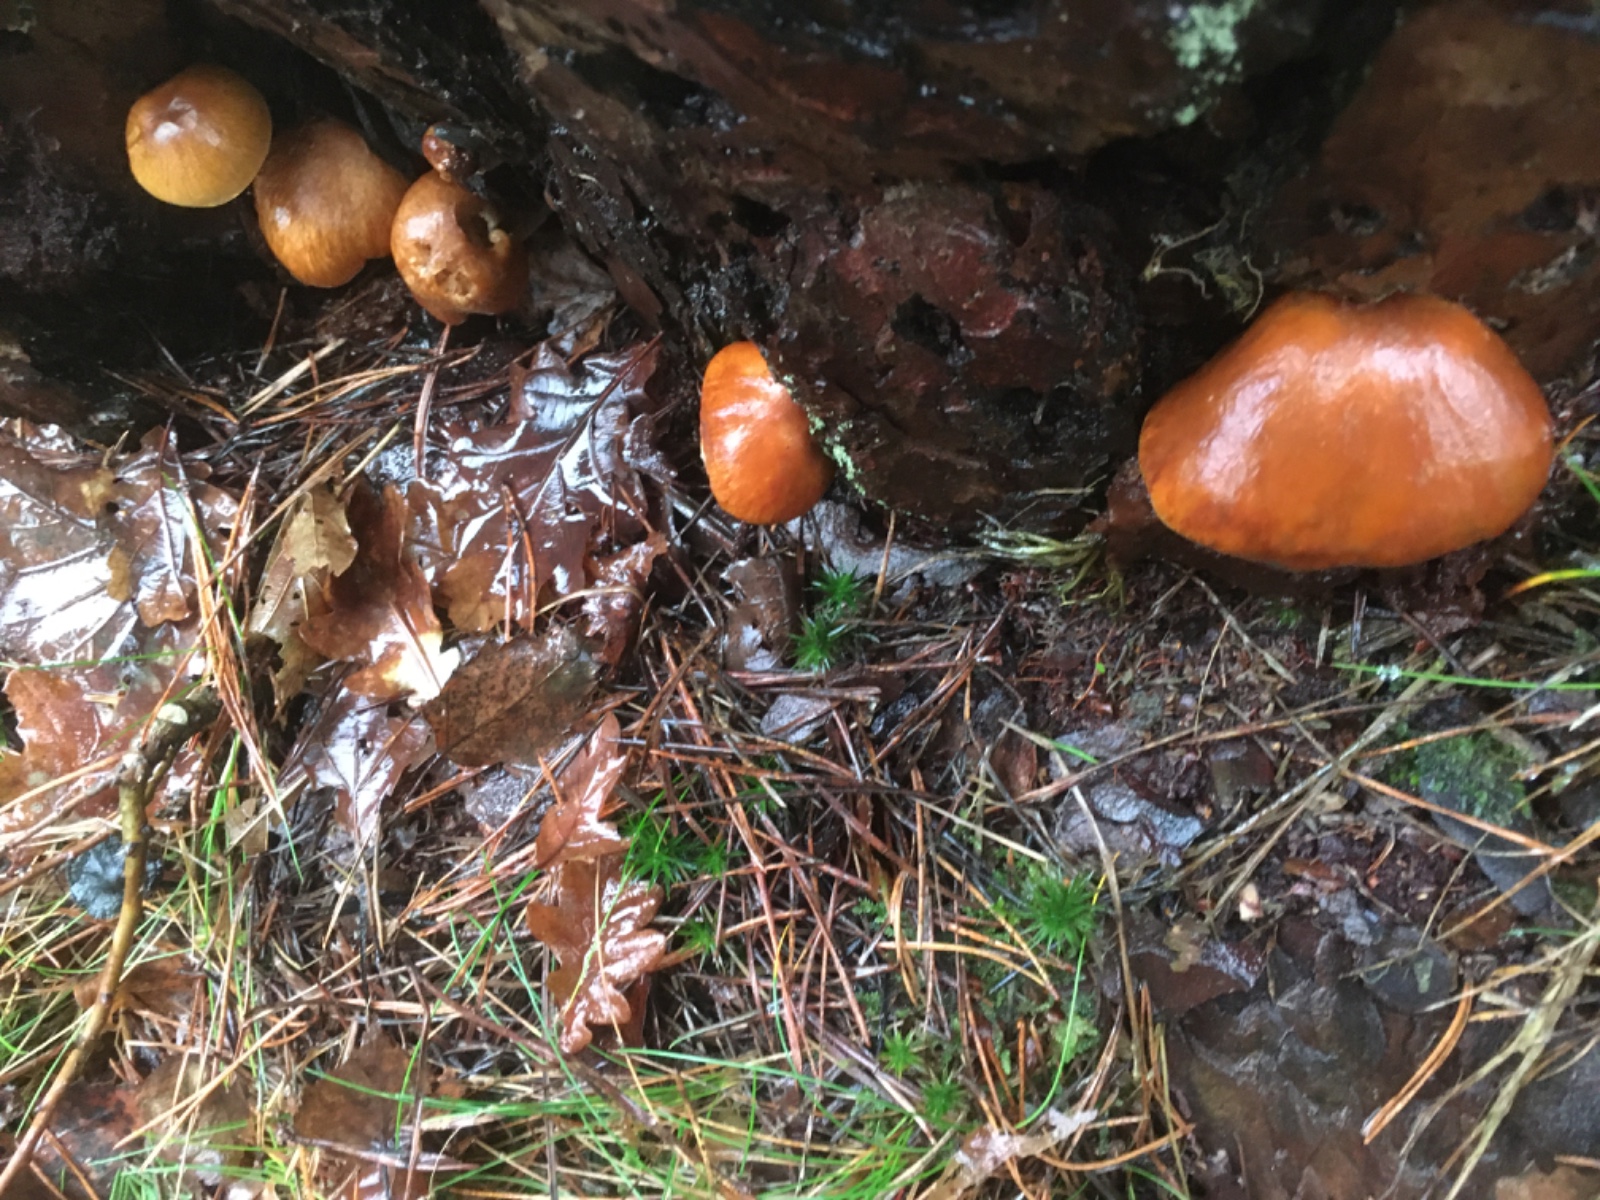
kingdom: Fungi
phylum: Basidiomycota
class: Agaricomycetes
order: Agaricales
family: Hymenogastraceae
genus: Gymnopilus
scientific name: Gymnopilus penetrans
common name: plettet flammehat
